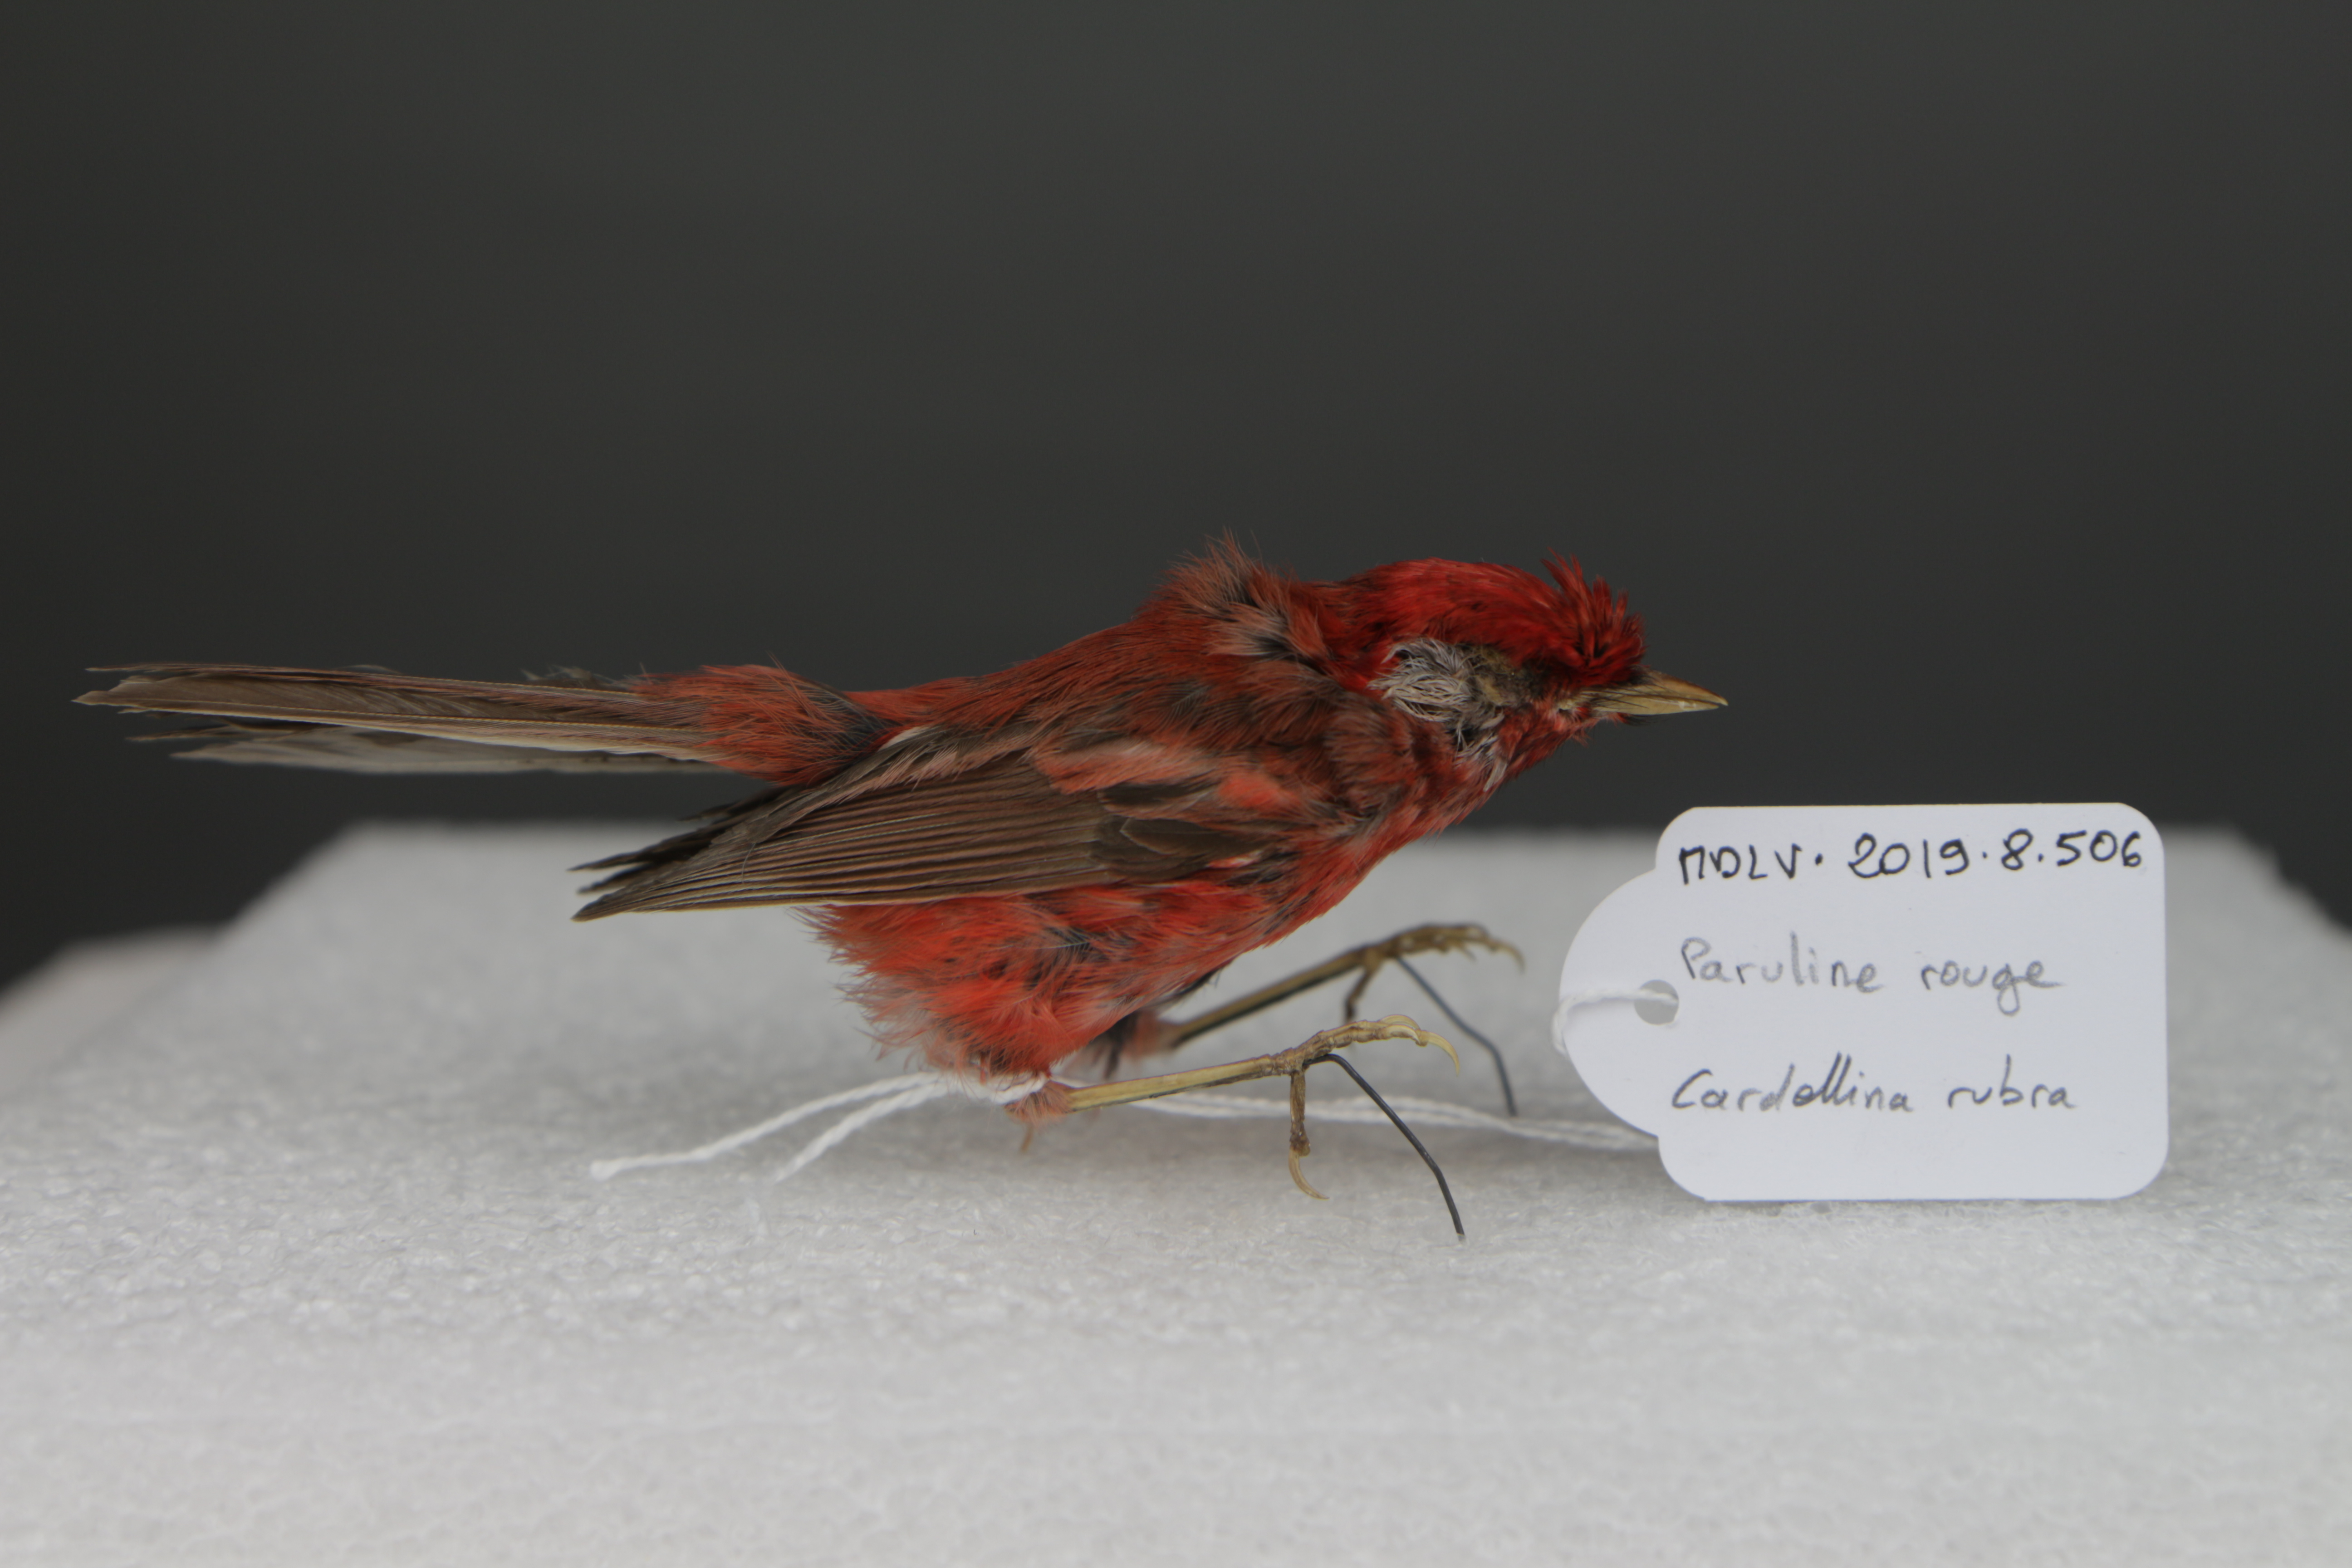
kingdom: Animalia
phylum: Chordata
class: Aves
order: Passeriformes
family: Parulidae
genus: Cardellina
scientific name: Cardellina rubra
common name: Red warbler
